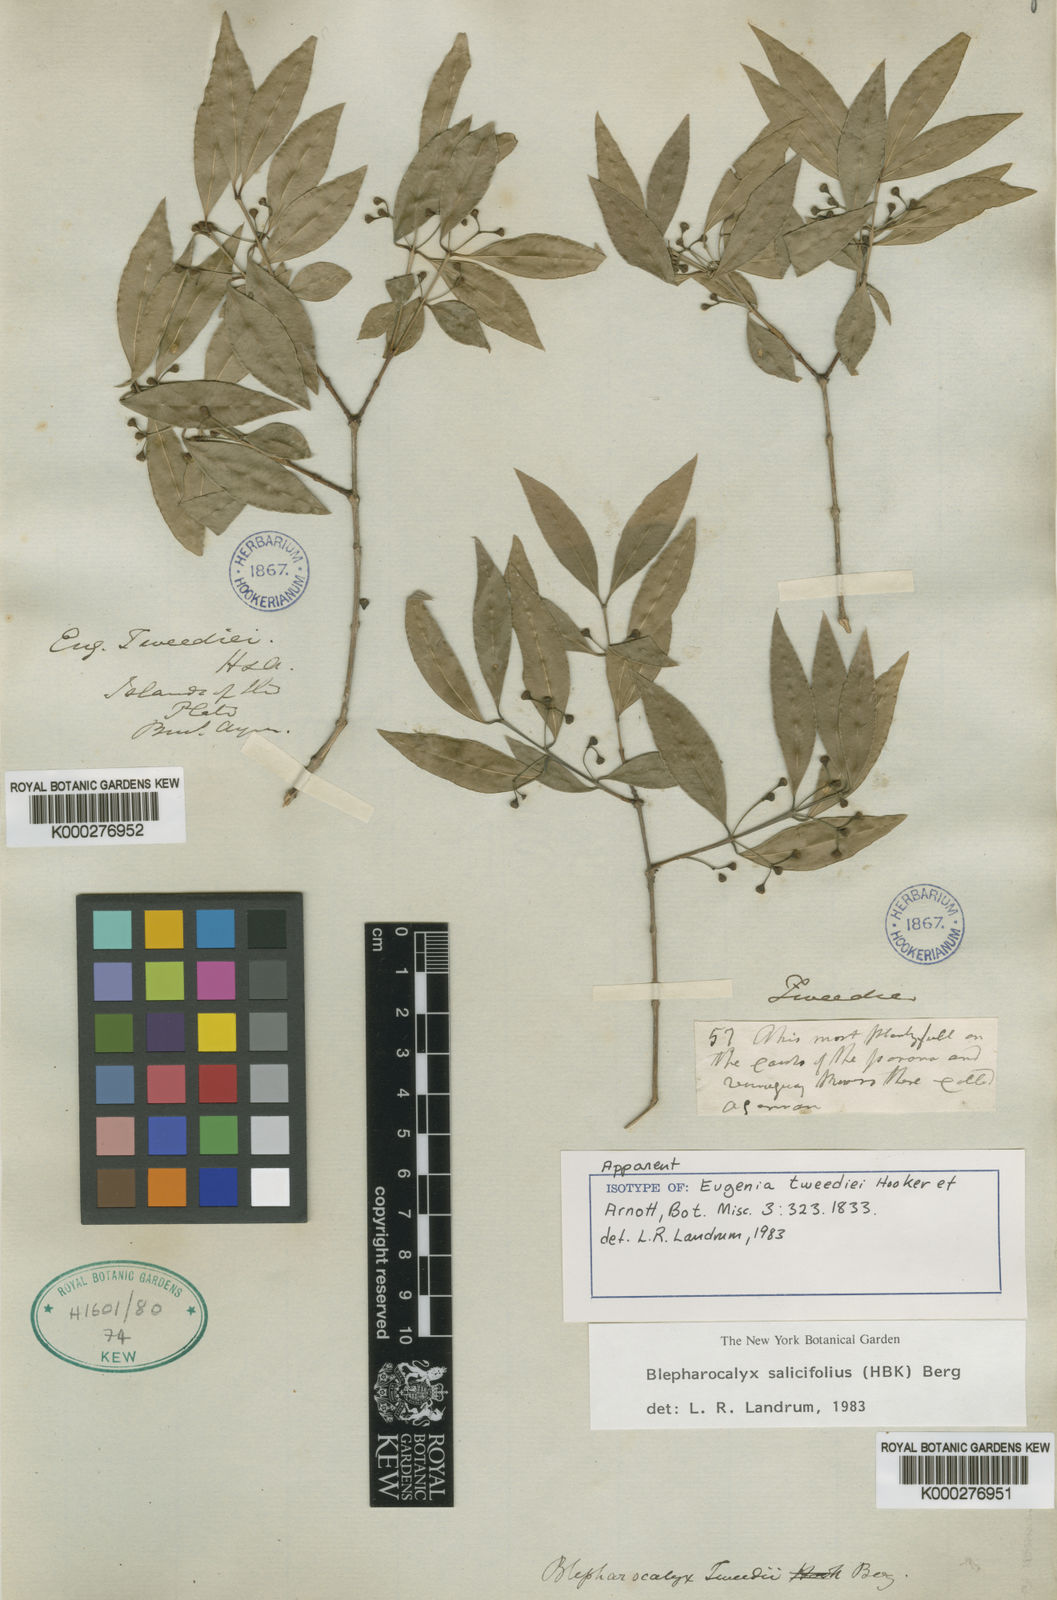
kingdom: Plantae
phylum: Tracheophyta
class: Magnoliopsida
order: Myrtales
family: Myrtaceae
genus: Blepharocalyx
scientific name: Blepharocalyx salicifolius
